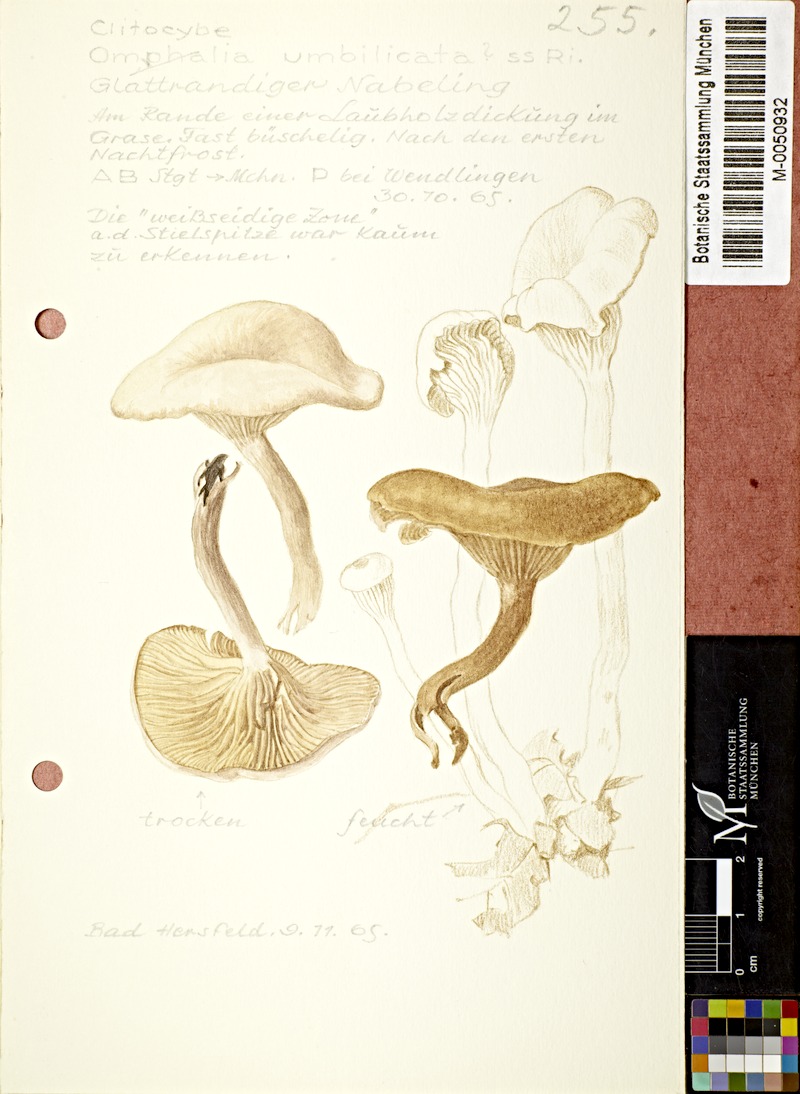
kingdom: Fungi
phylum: Basidiomycota
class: Agaricomycetes
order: Agaricales
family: Tricholomataceae
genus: Clitocybe
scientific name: Clitocybe umbilicata
